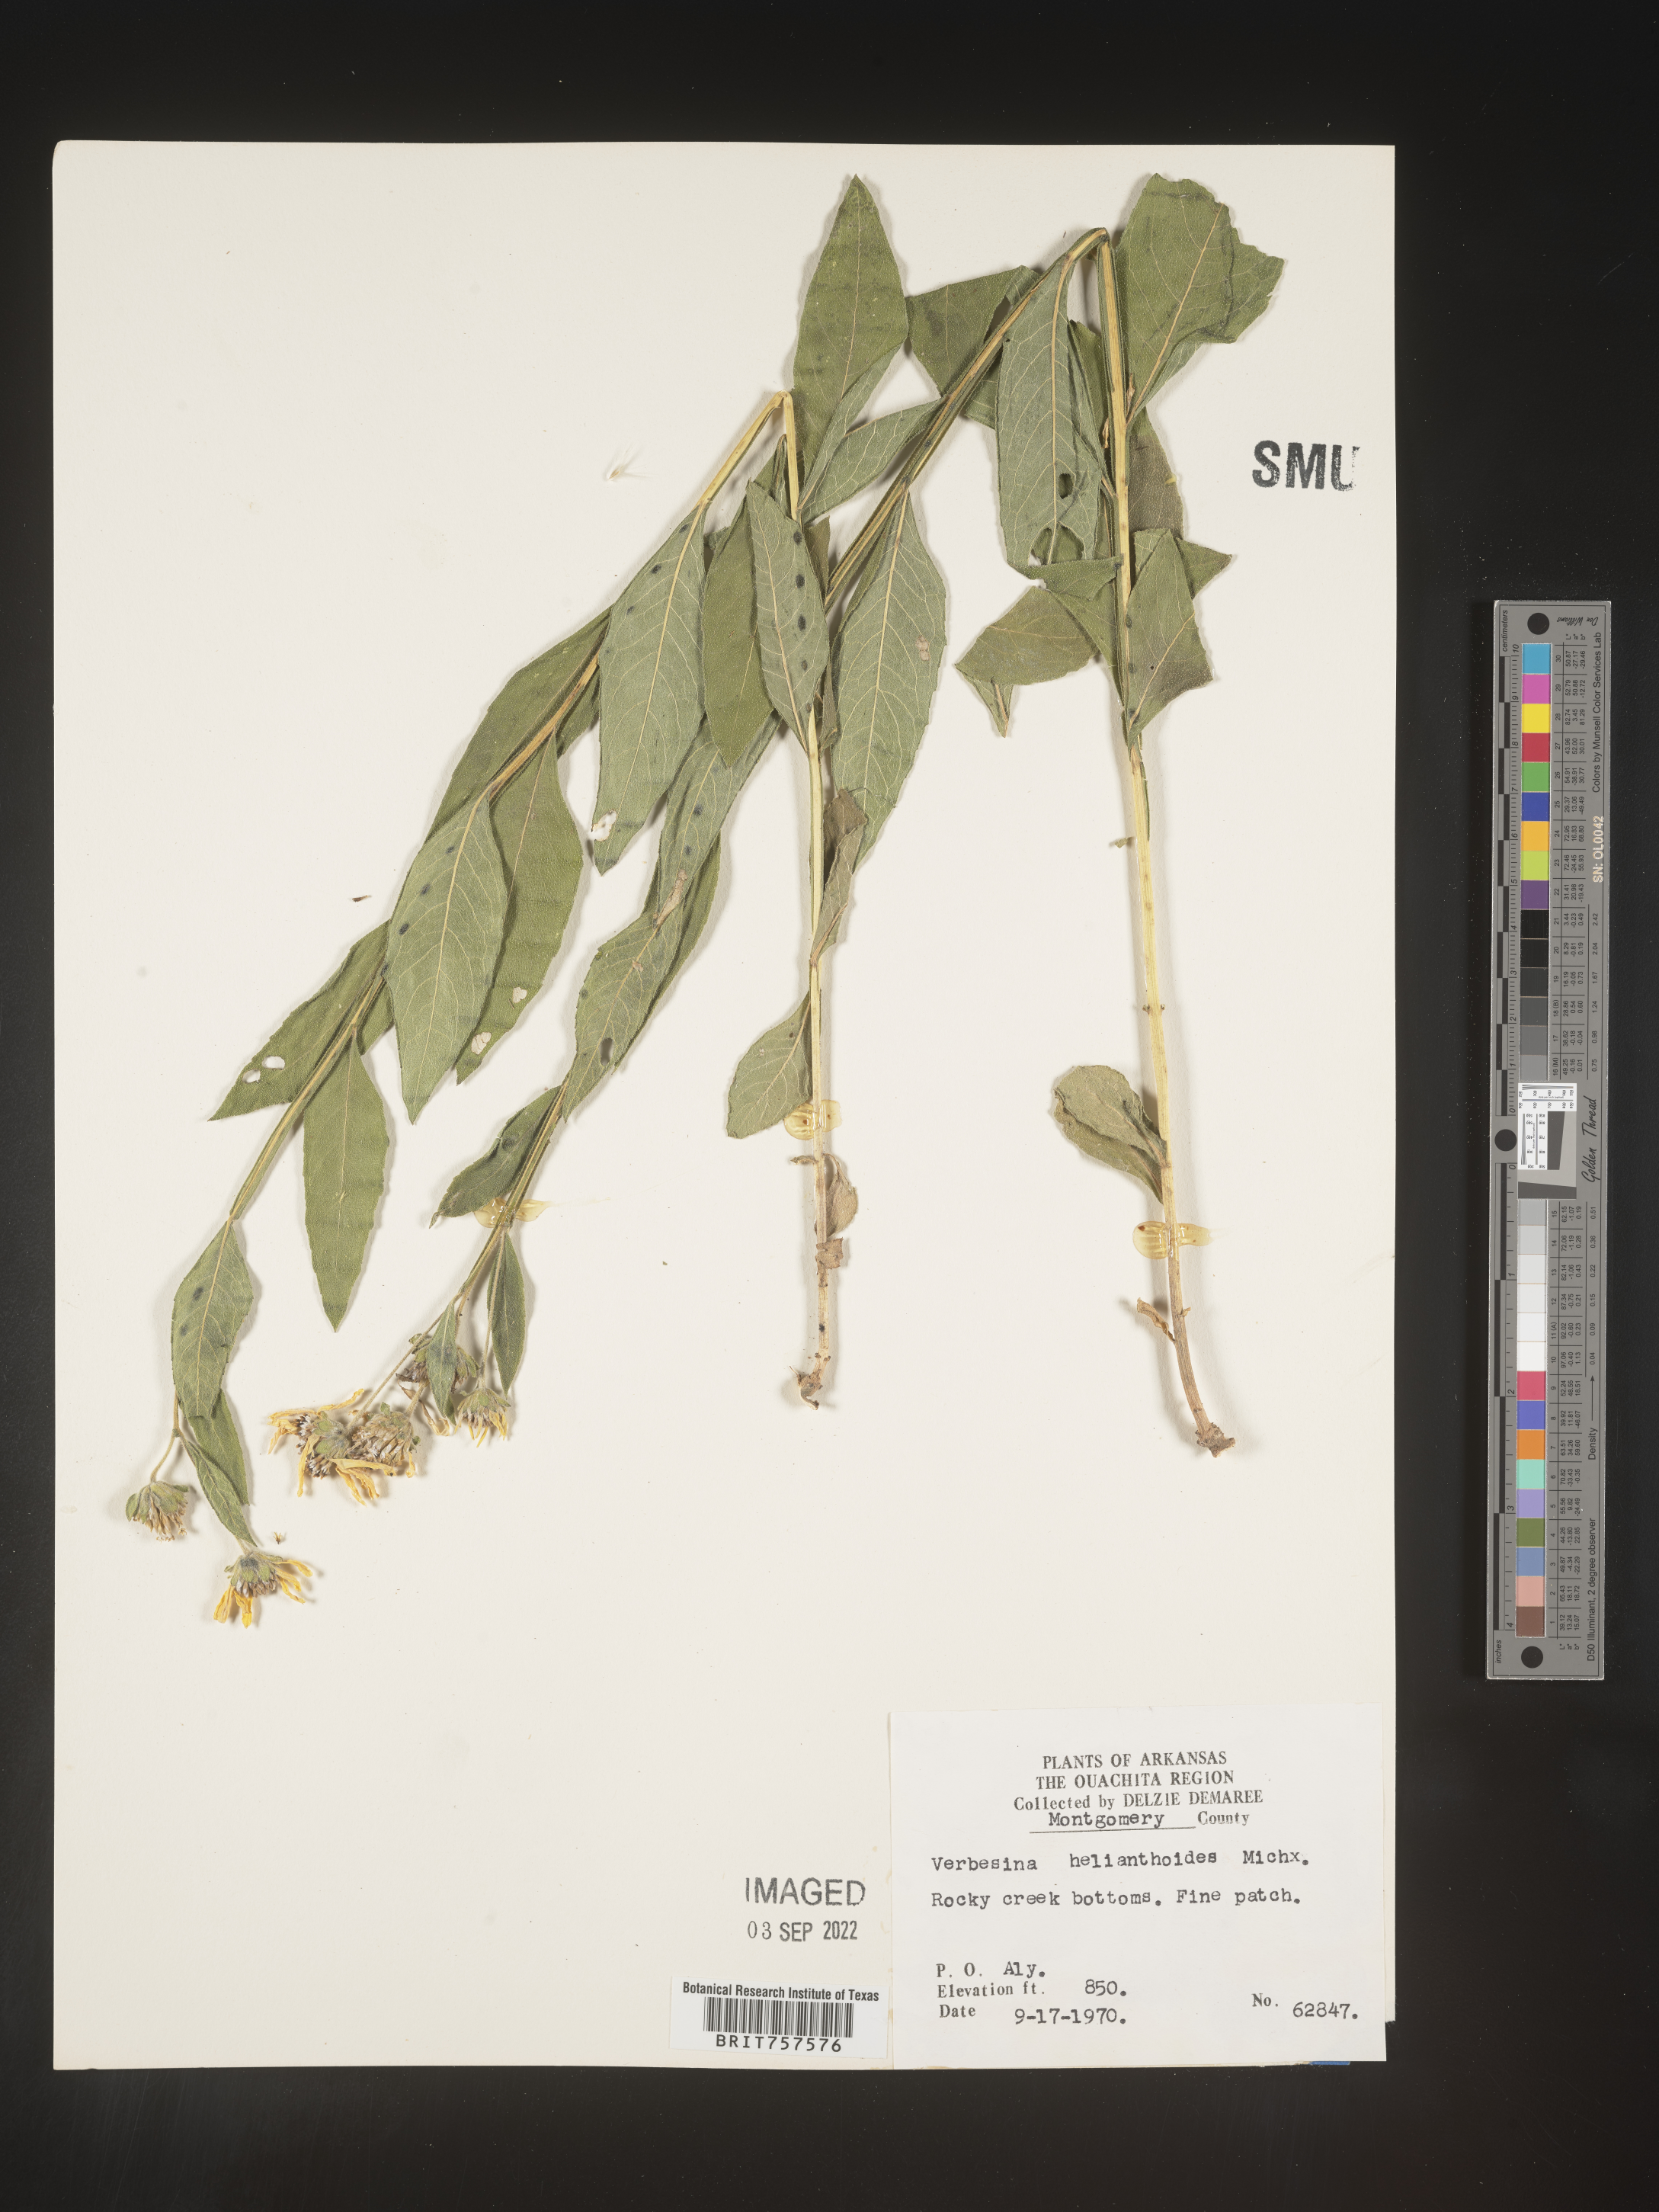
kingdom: Plantae
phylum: Tracheophyta
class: Magnoliopsida
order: Asterales
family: Asteraceae
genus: Verbesina
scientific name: Verbesina helianthoides
